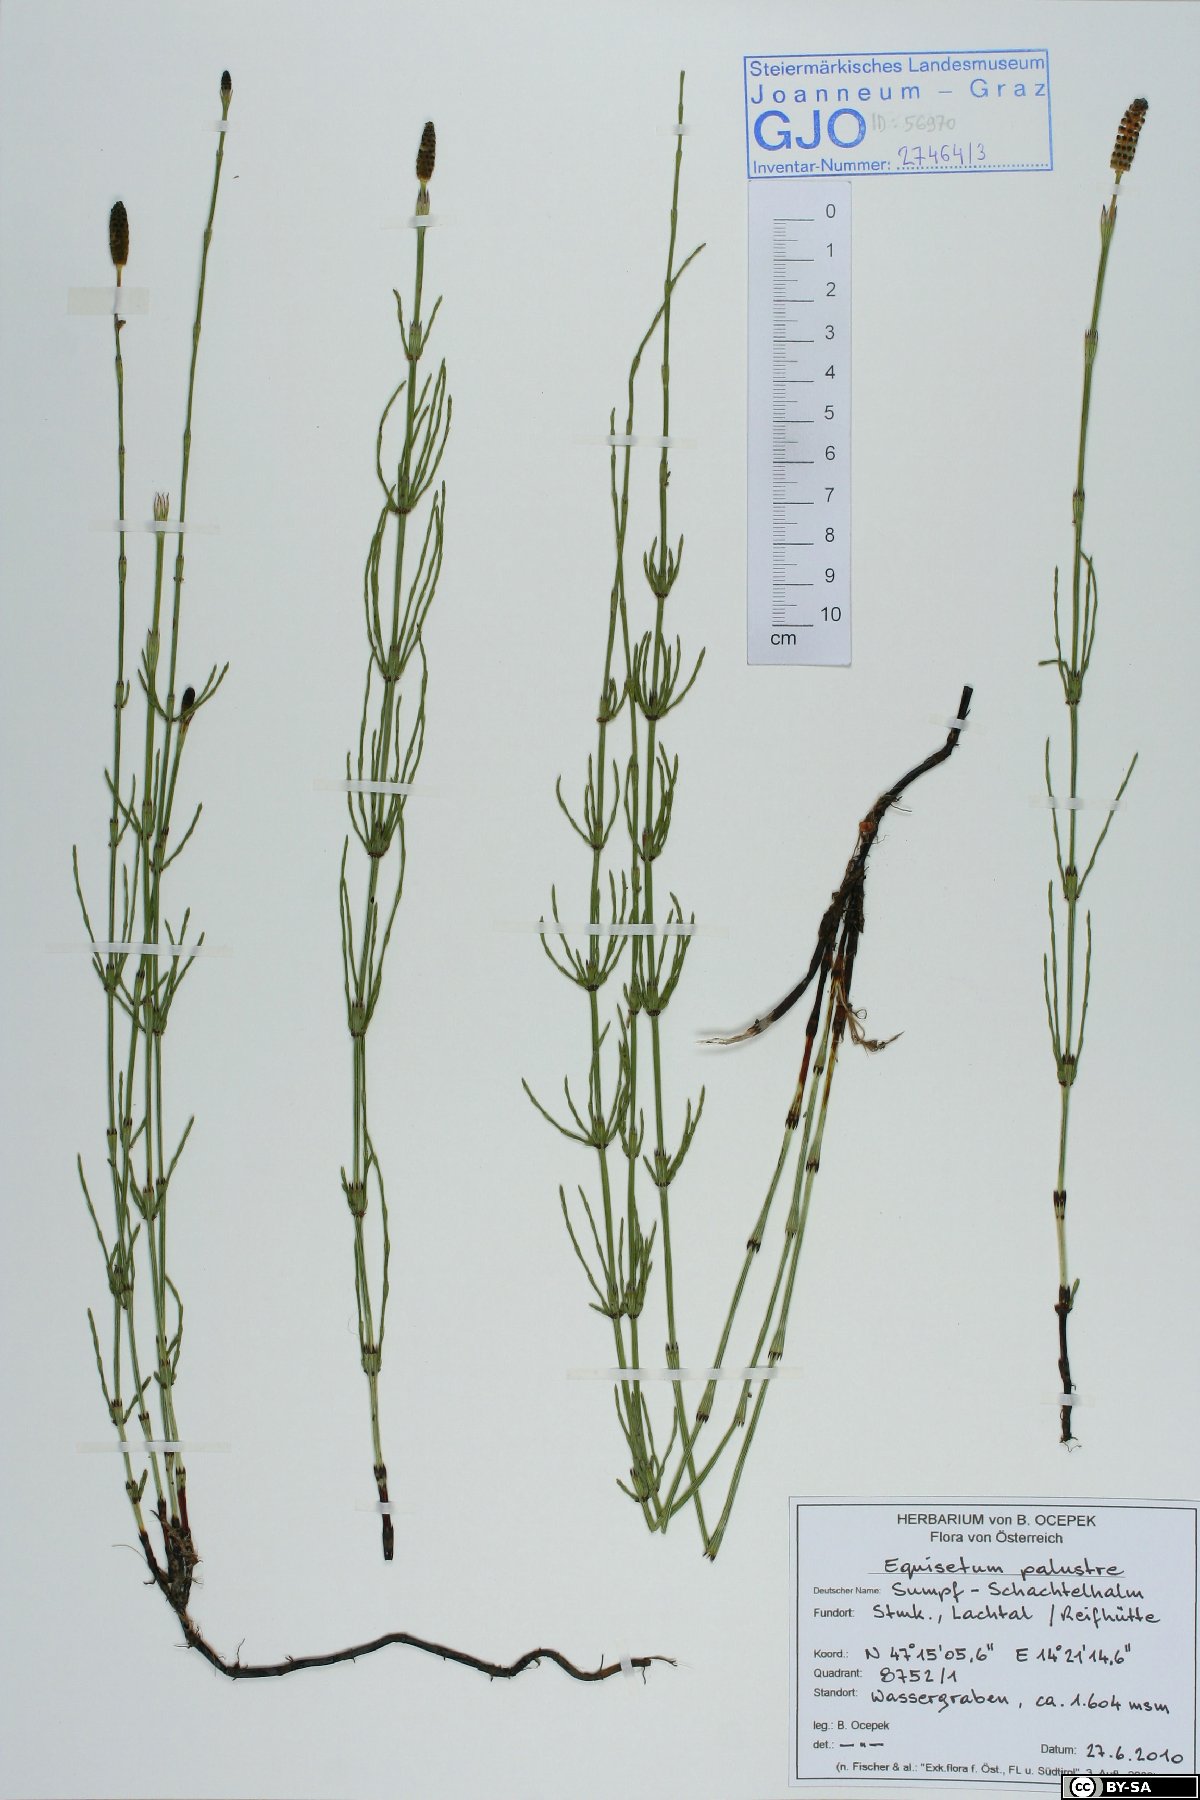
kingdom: Plantae
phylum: Tracheophyta
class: Polypodiopsida
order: Equisetales
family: Equisetaceae
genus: Equisetum
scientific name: Equisetum palustre
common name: Marsh horsetail
